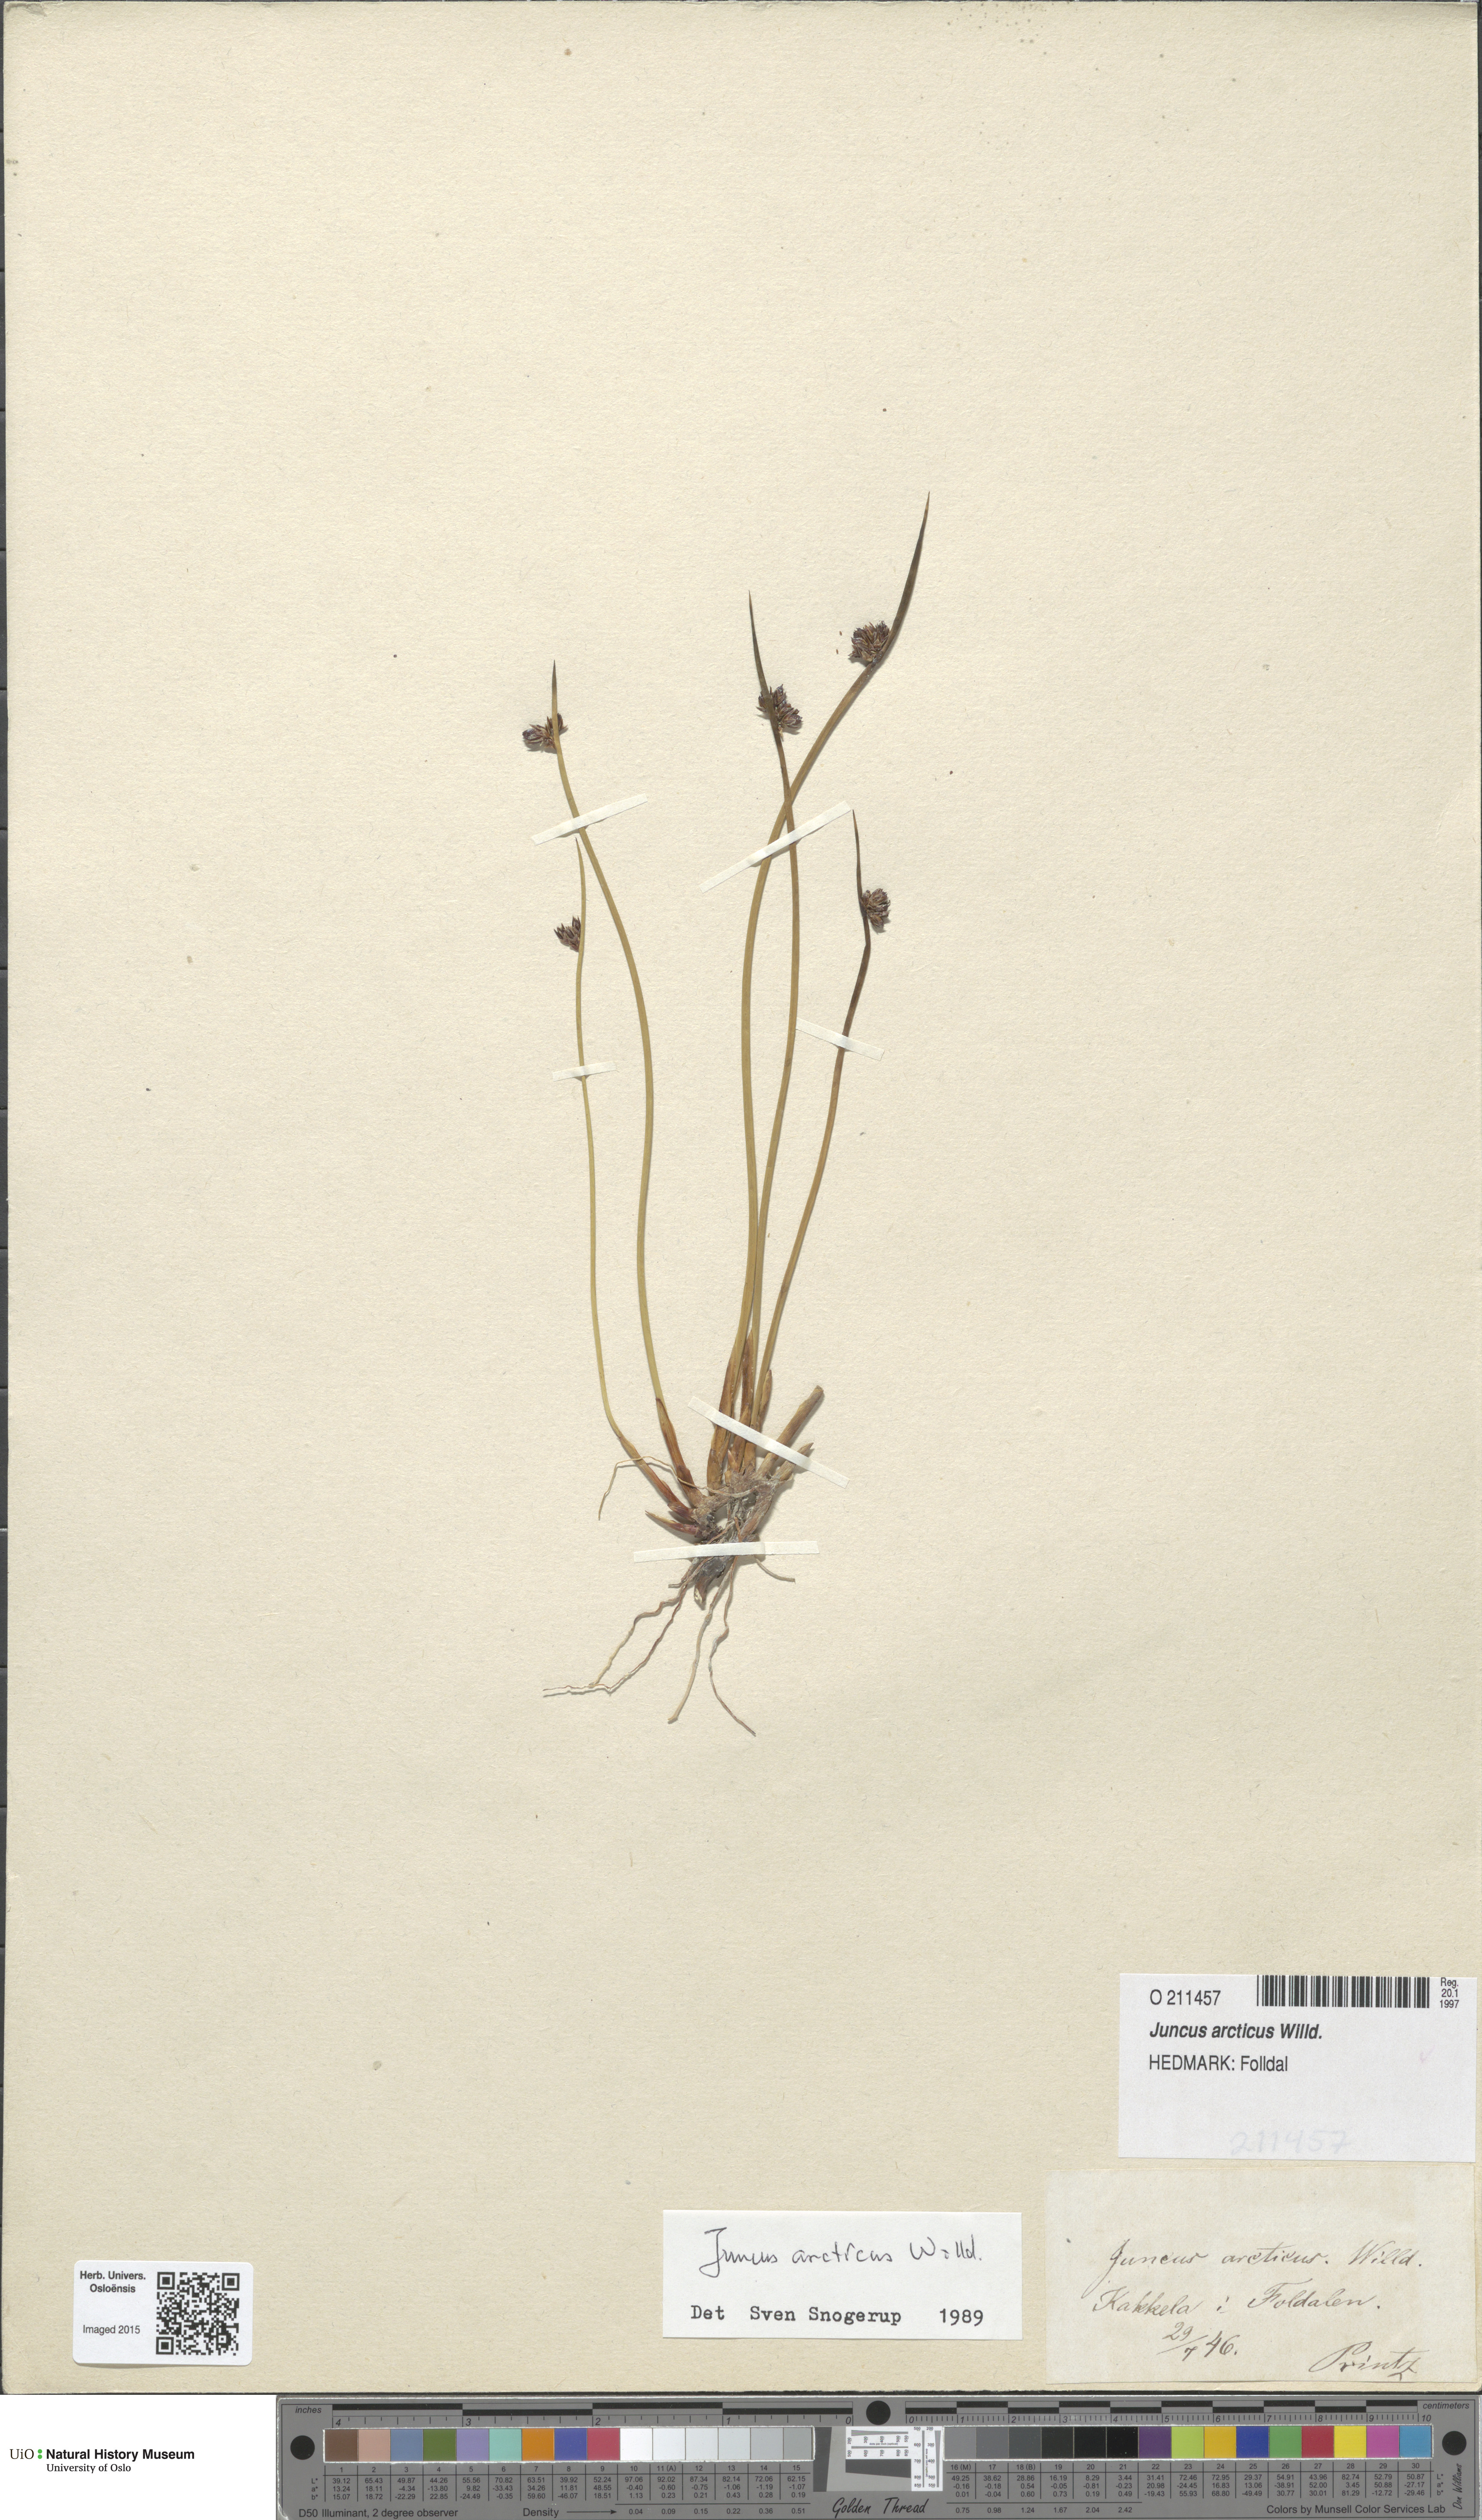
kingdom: Plantae
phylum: Tracheophyta
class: Liliopsida
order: Poales
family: Juncaceae
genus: Juncus
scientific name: Juncus arcticus
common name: Arctic rush
